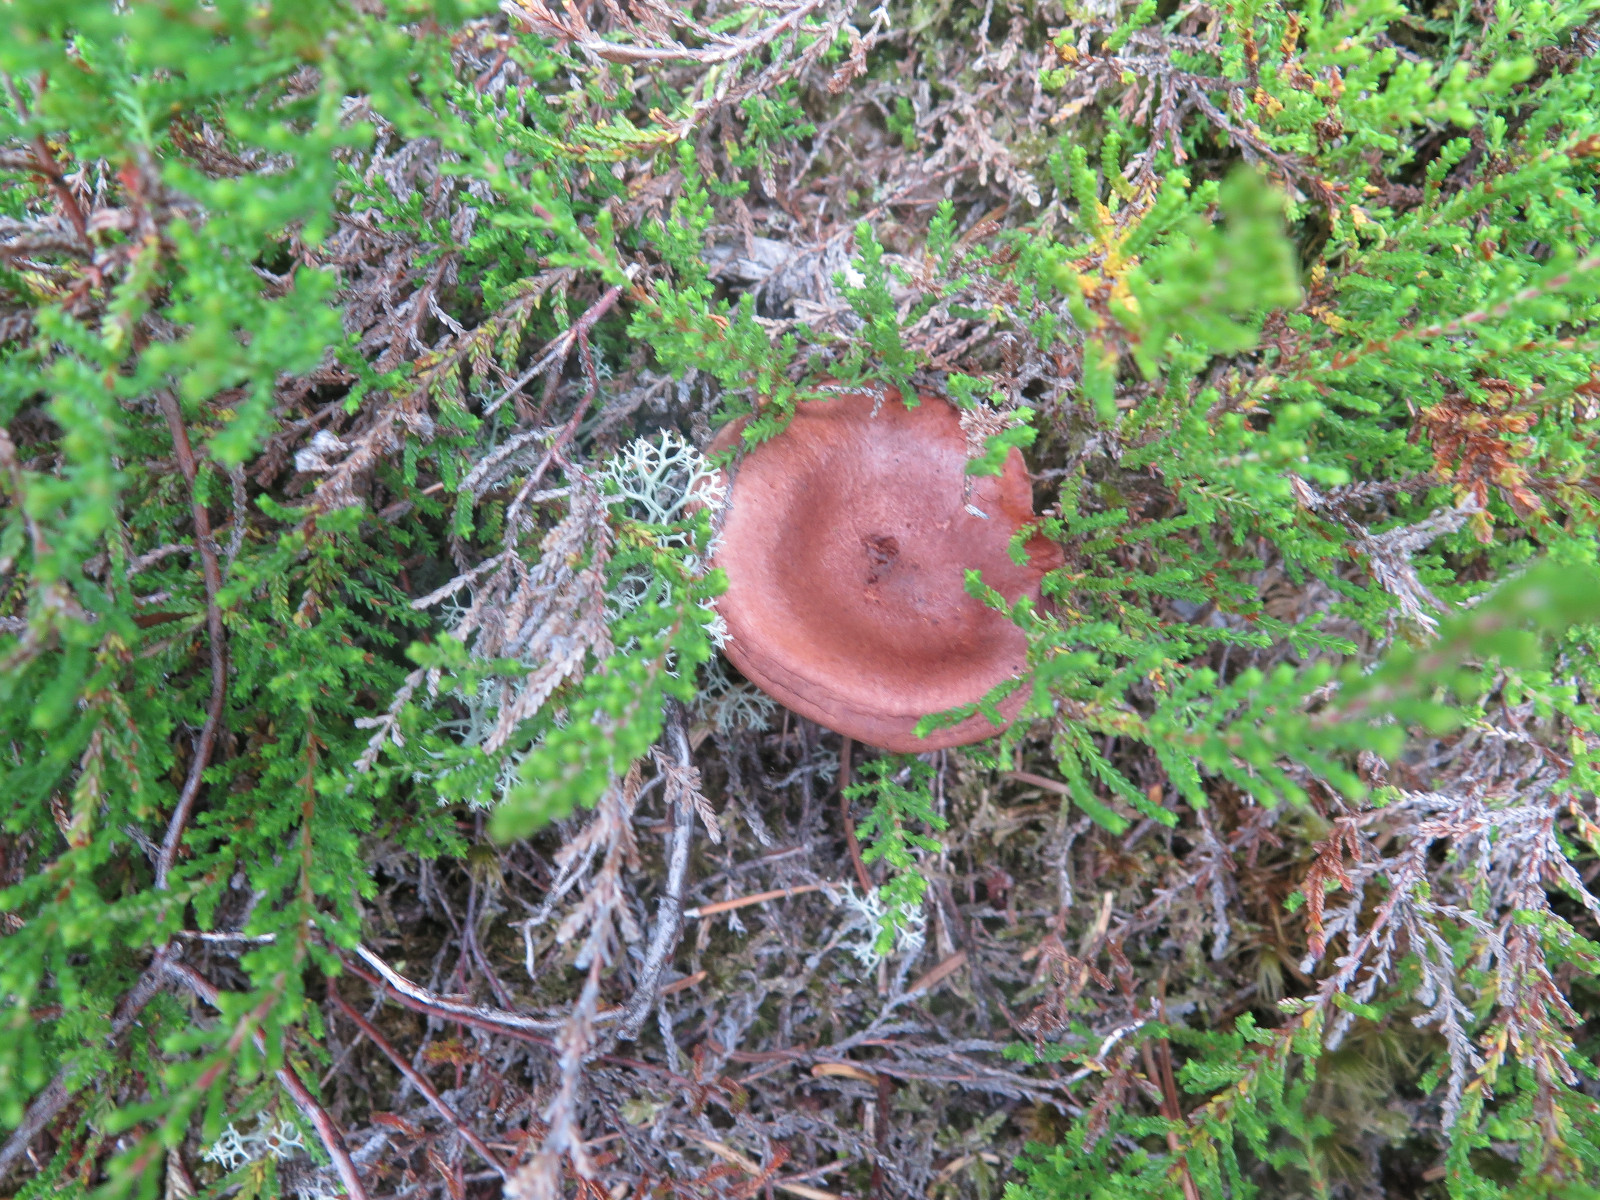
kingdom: Fungi
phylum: Basidiomycota
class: Agaricomycetes
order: Russulales
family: Russulaceae
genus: Lactarius
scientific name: Lactarius rufus
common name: rødbrun mælkehat
